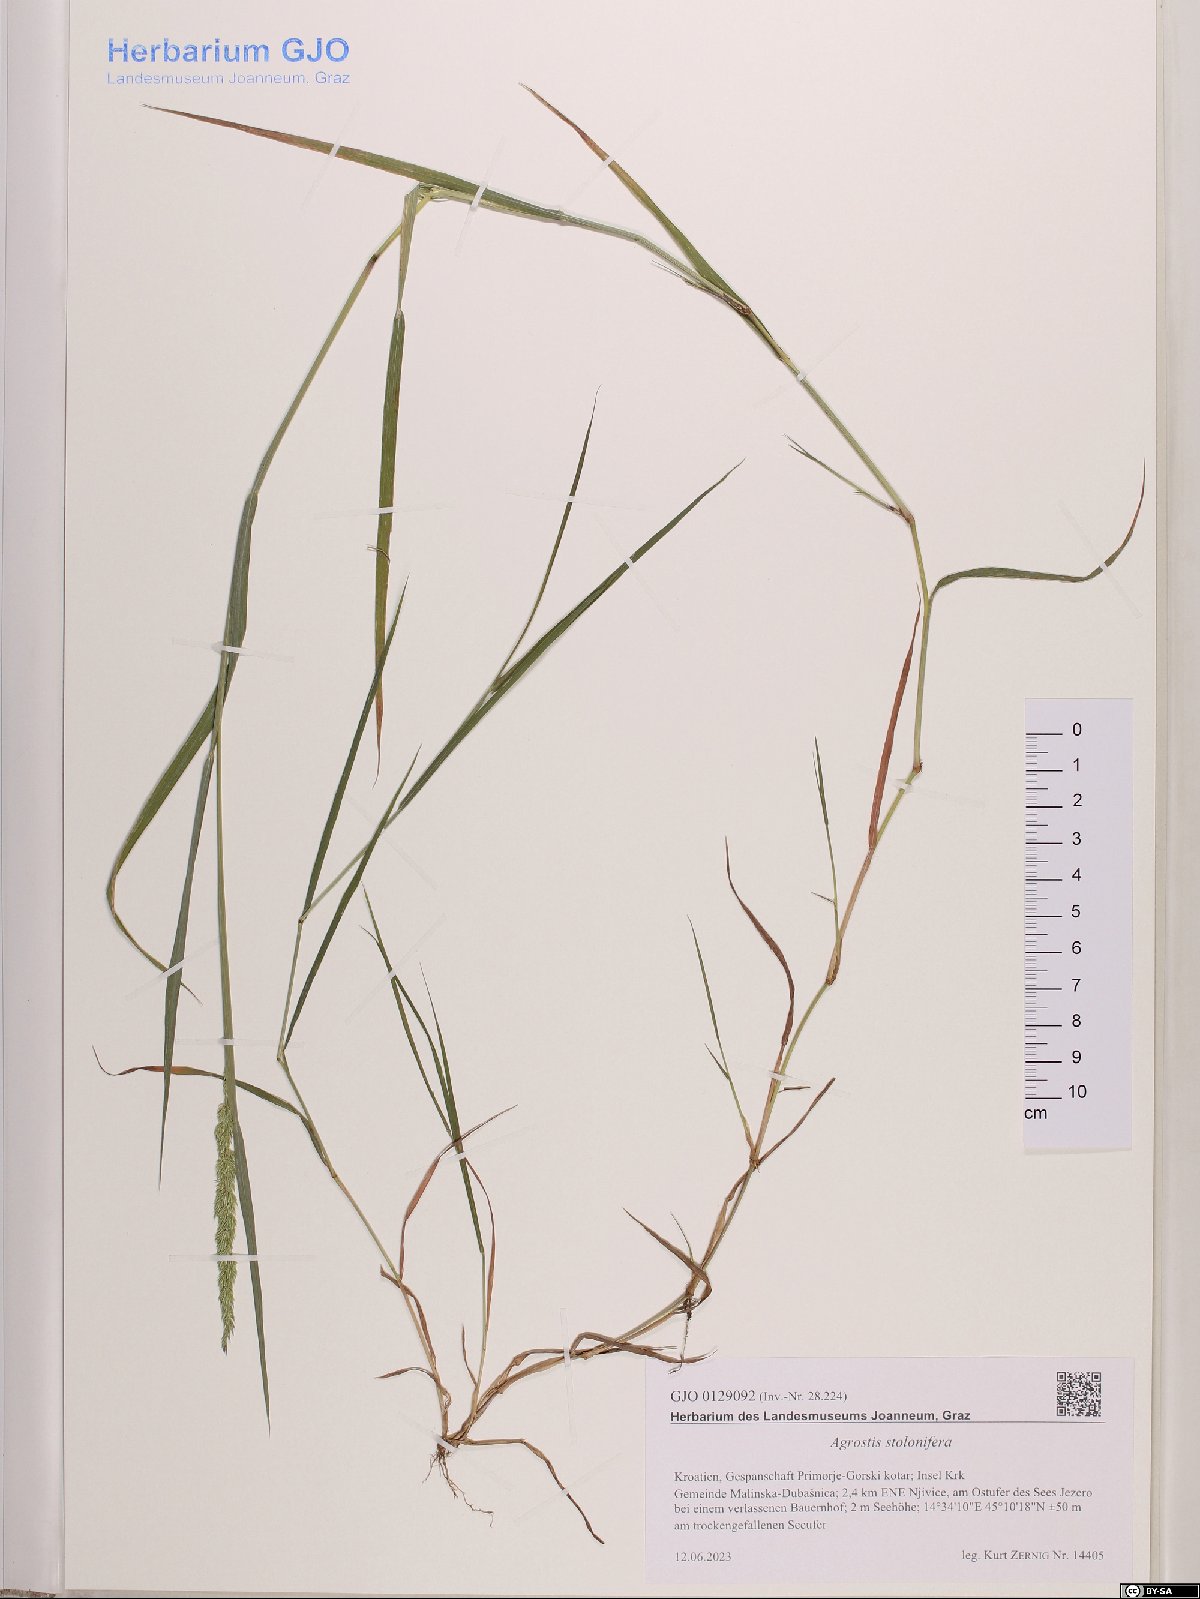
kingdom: Plantae
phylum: Tracheophyta
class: Liliopsida
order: Poales
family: Poaceae
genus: Agrostis
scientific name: Agrostis stolonifera
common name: Creeping bentgrass
